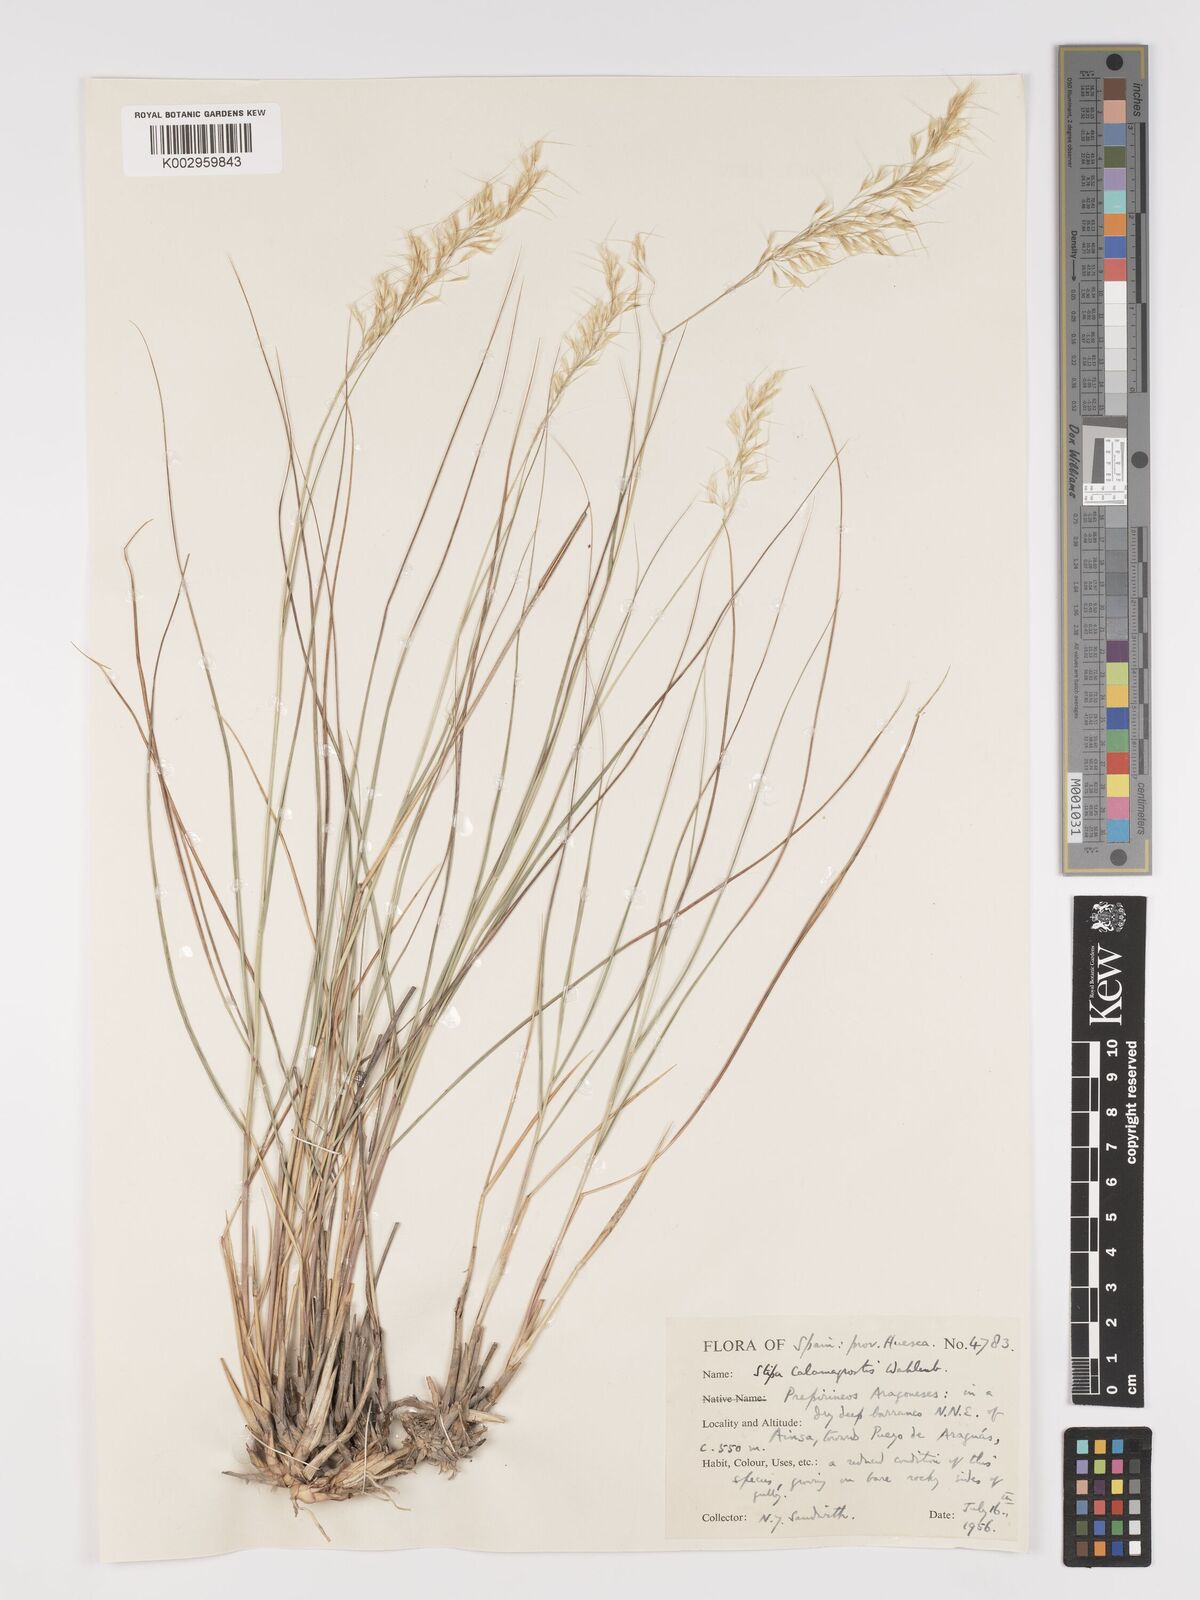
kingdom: Plantae
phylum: Tracheophyta
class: Liliopsida
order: Poales
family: Poaceae
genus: Achnatherum
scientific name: Achnatherum calamagrostis
